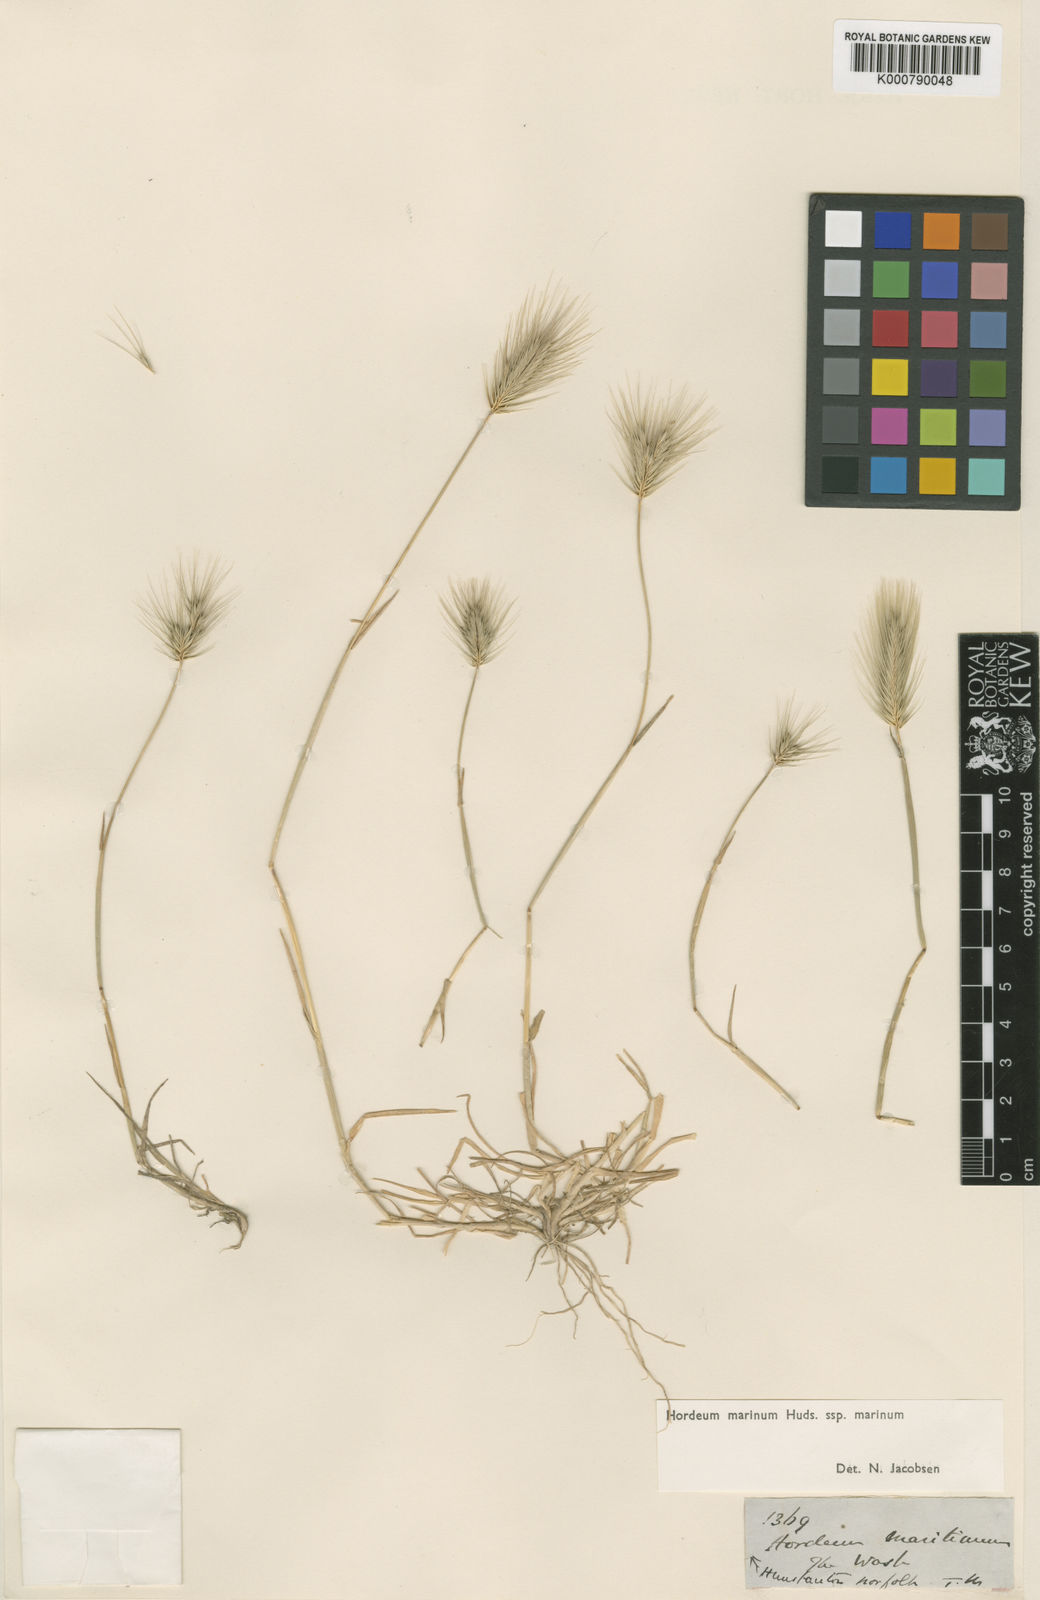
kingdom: Plantae
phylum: Tracheophyta
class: Liliopsida
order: Poales
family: Poaceae
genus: Hordeum
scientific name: Hordeum marinum
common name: Sea barley
